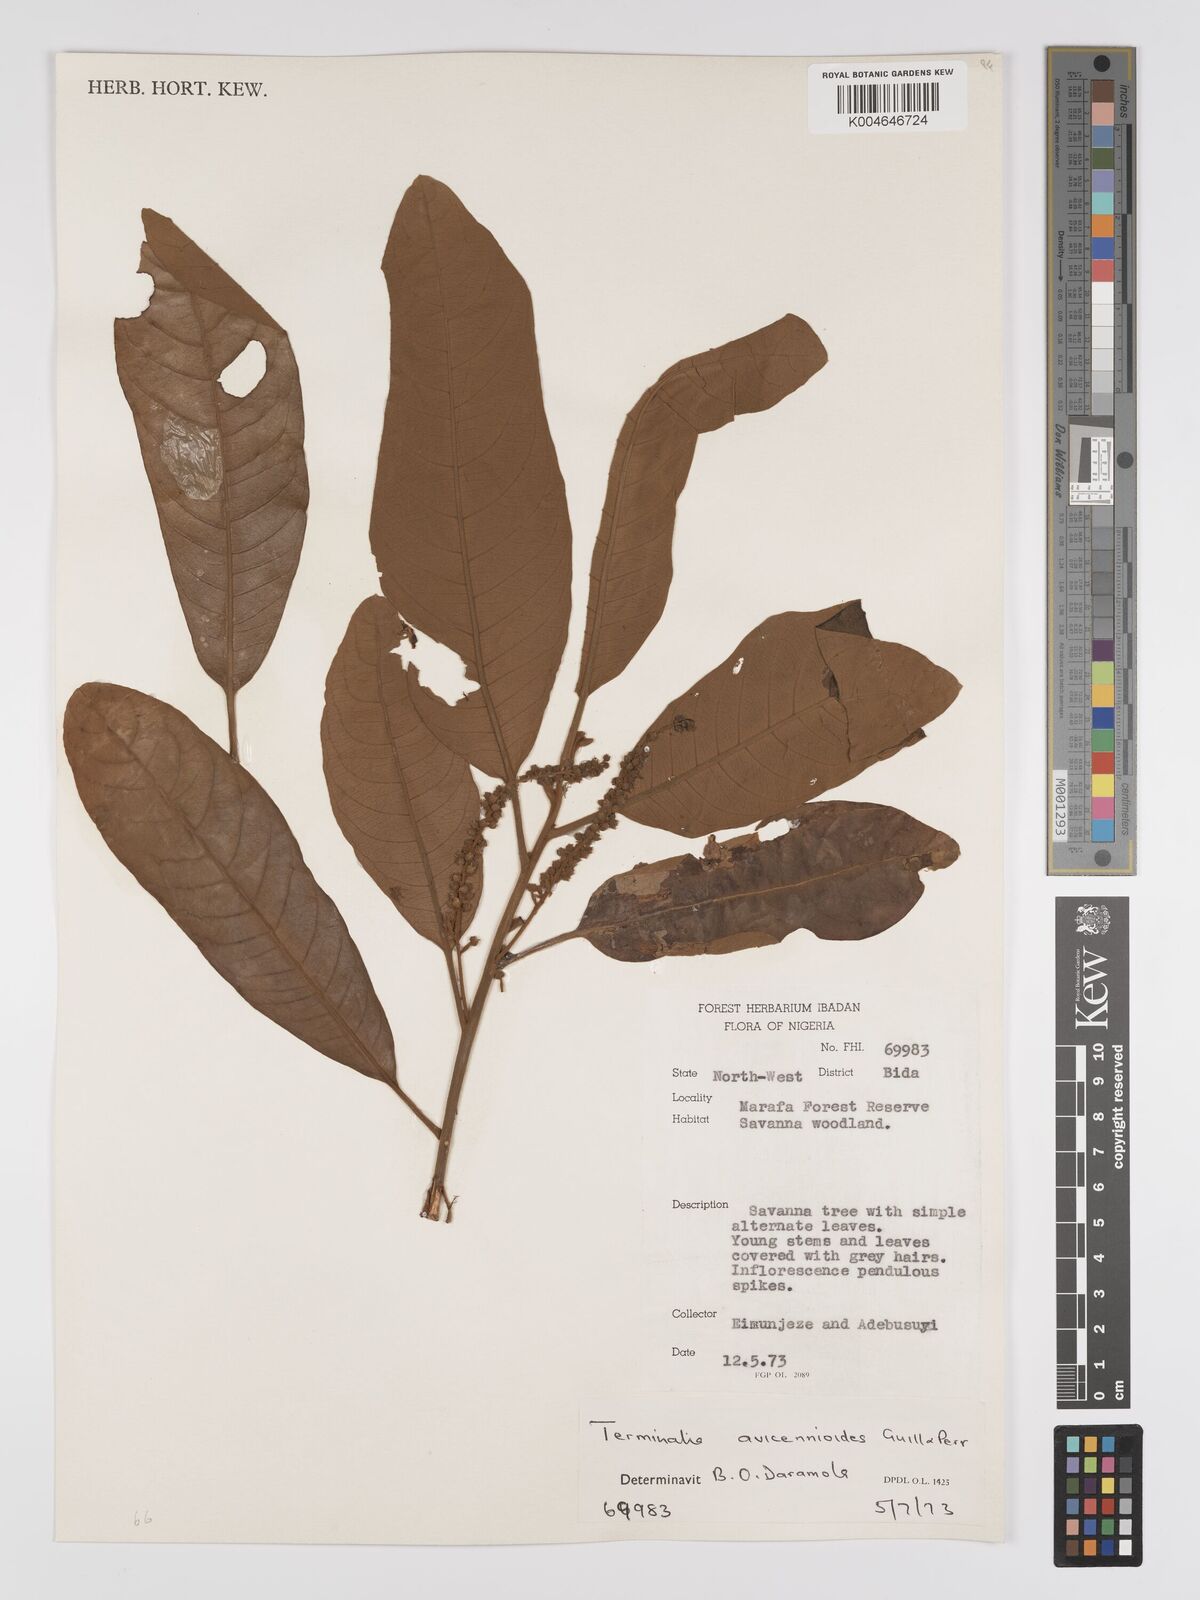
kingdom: Plantae
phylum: Tracheophyta
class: Magnoliopsida
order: Myrtales
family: Combretaceae
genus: Terminalia
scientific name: Terminalia avicennioides
